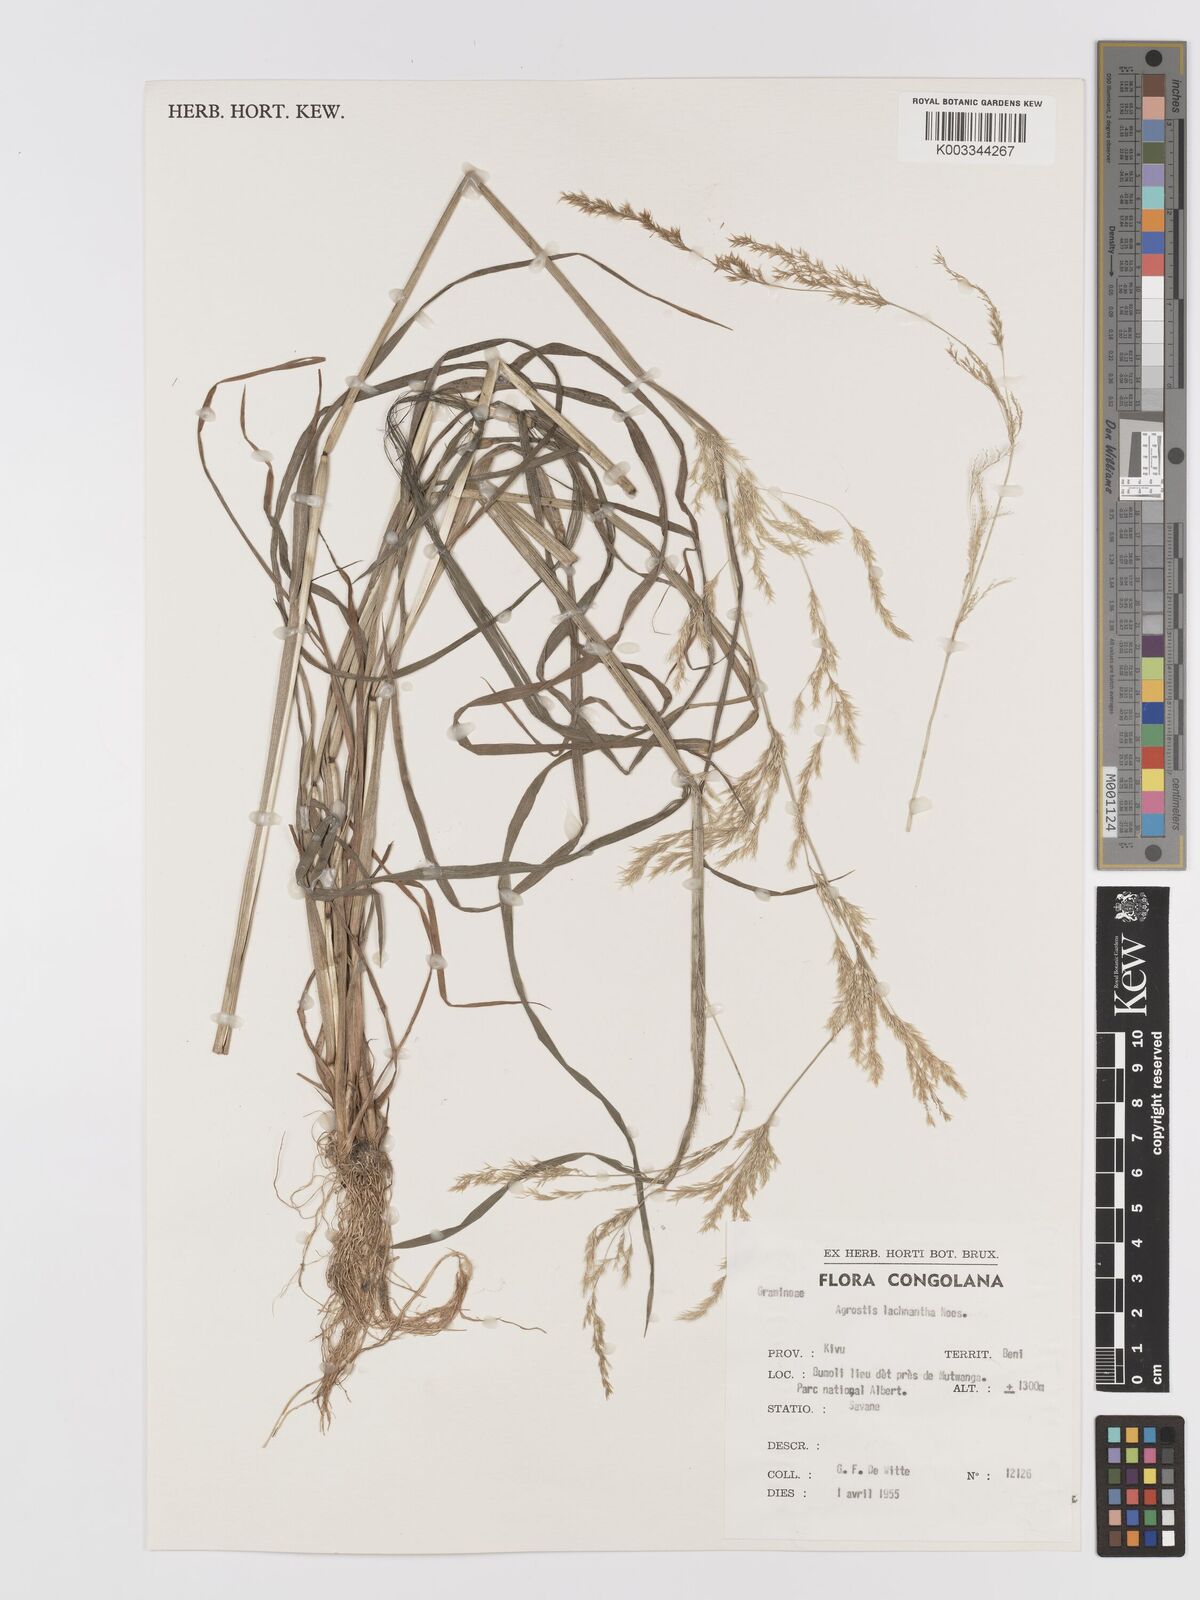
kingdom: Plantae
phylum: Tracheophyta
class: Liliopsida
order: Poales
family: Poaceae
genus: Lachnagrostis
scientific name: Lachnagrostis lachnantha
